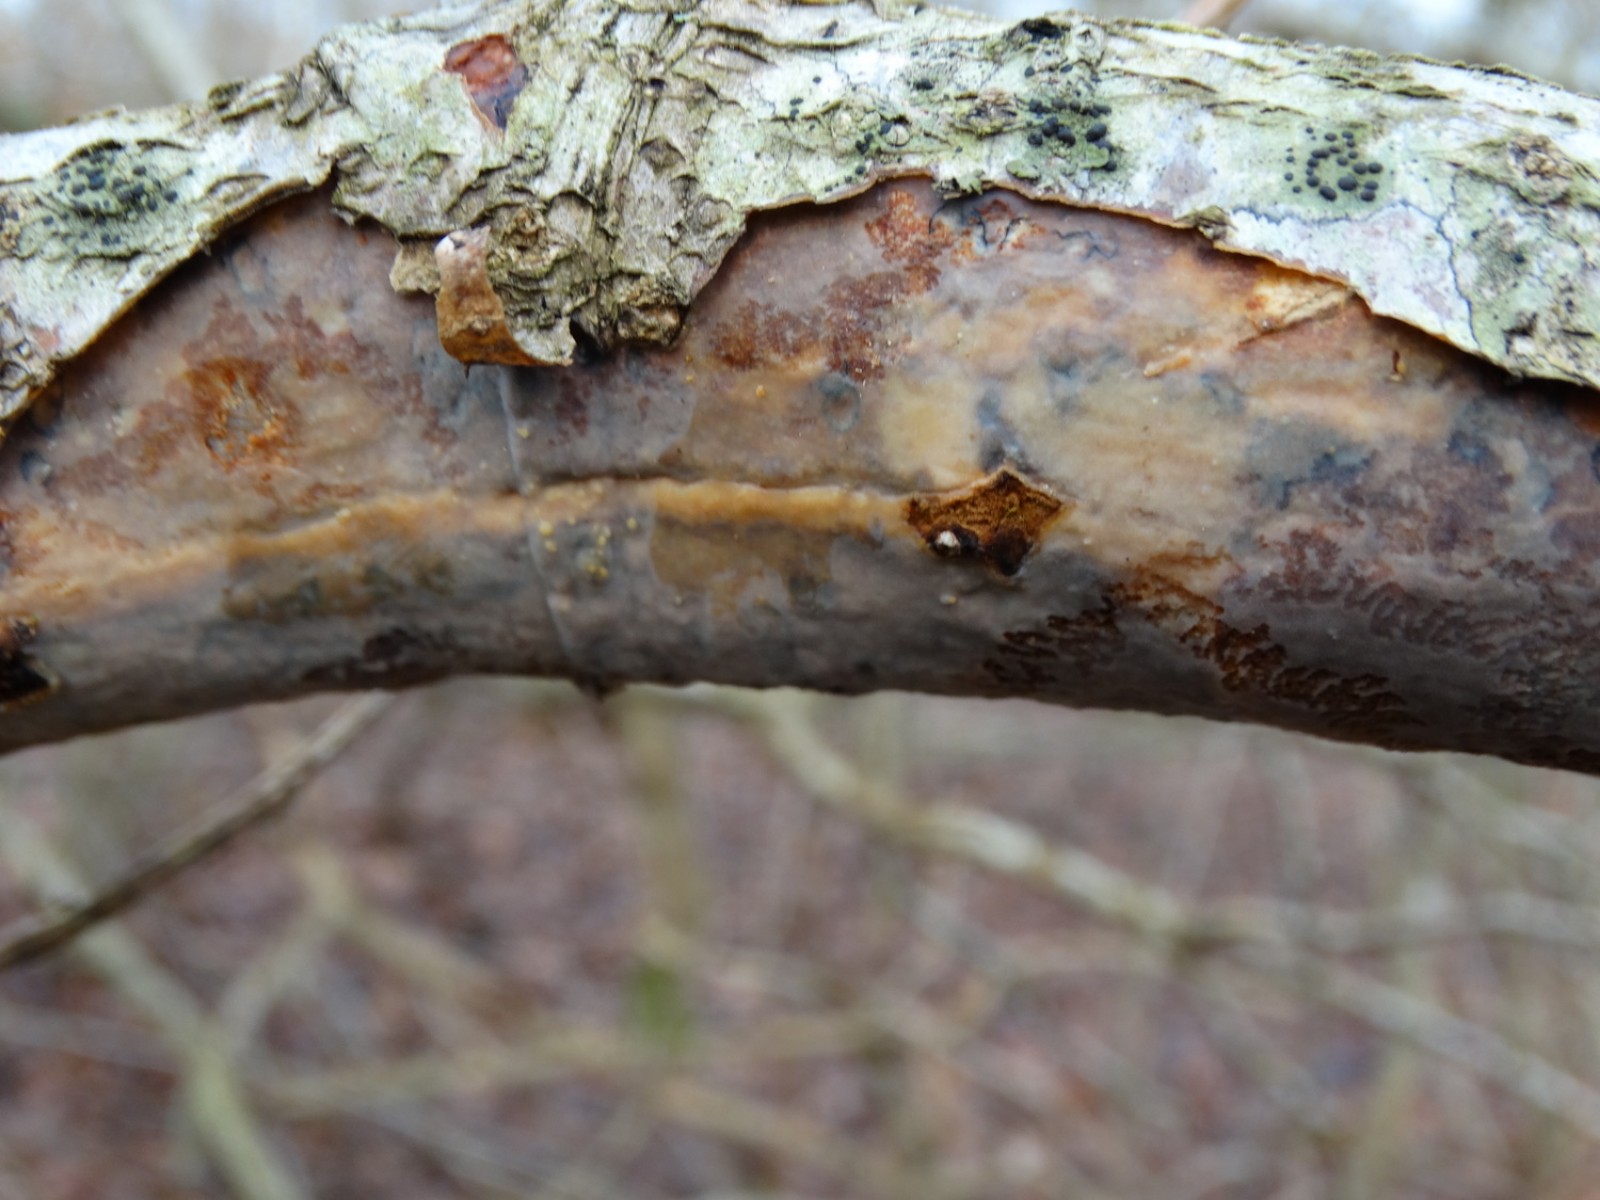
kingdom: Fungi
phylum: Basidiomycota
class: Agaricomycetes
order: Corticiales
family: Vuilleminiaceae
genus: Vuilleminia
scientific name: Vuilleminia comedens
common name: almindelig barksprænger
